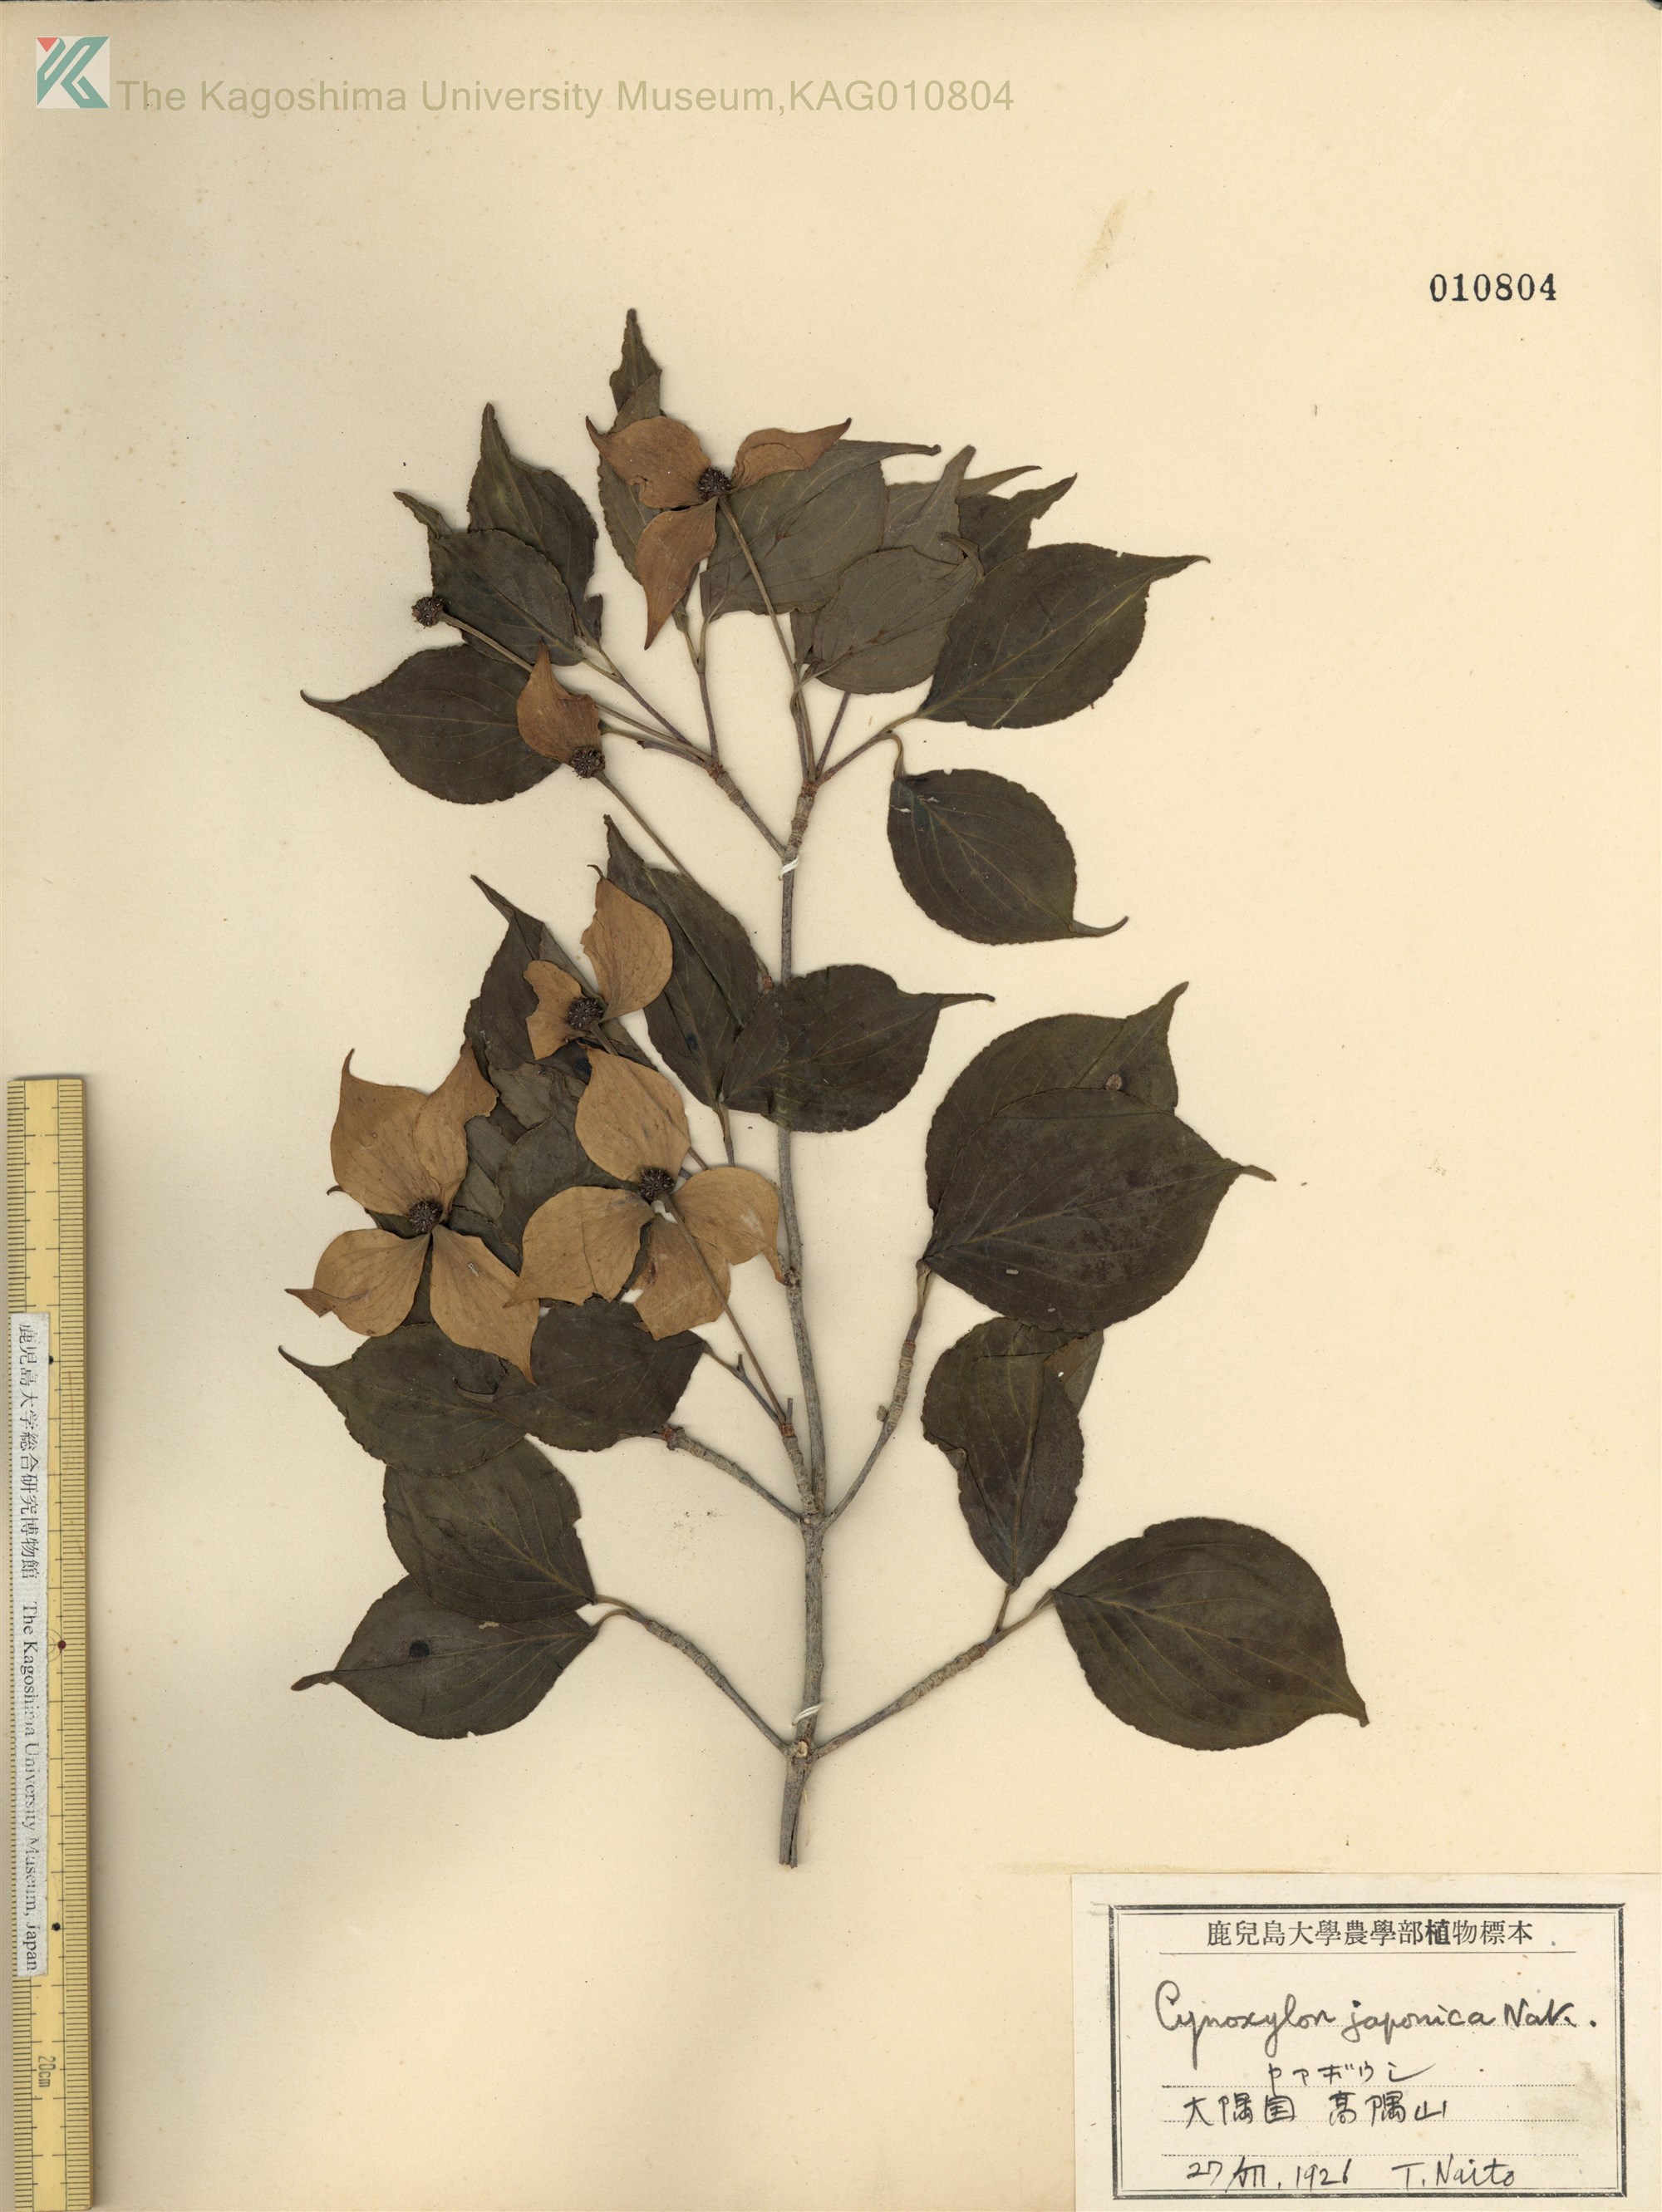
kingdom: Plantae
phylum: Tracheophyta
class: Magnoliopsida
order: Cornales
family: Cornaceae
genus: Cornus
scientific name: Cornus kousa
